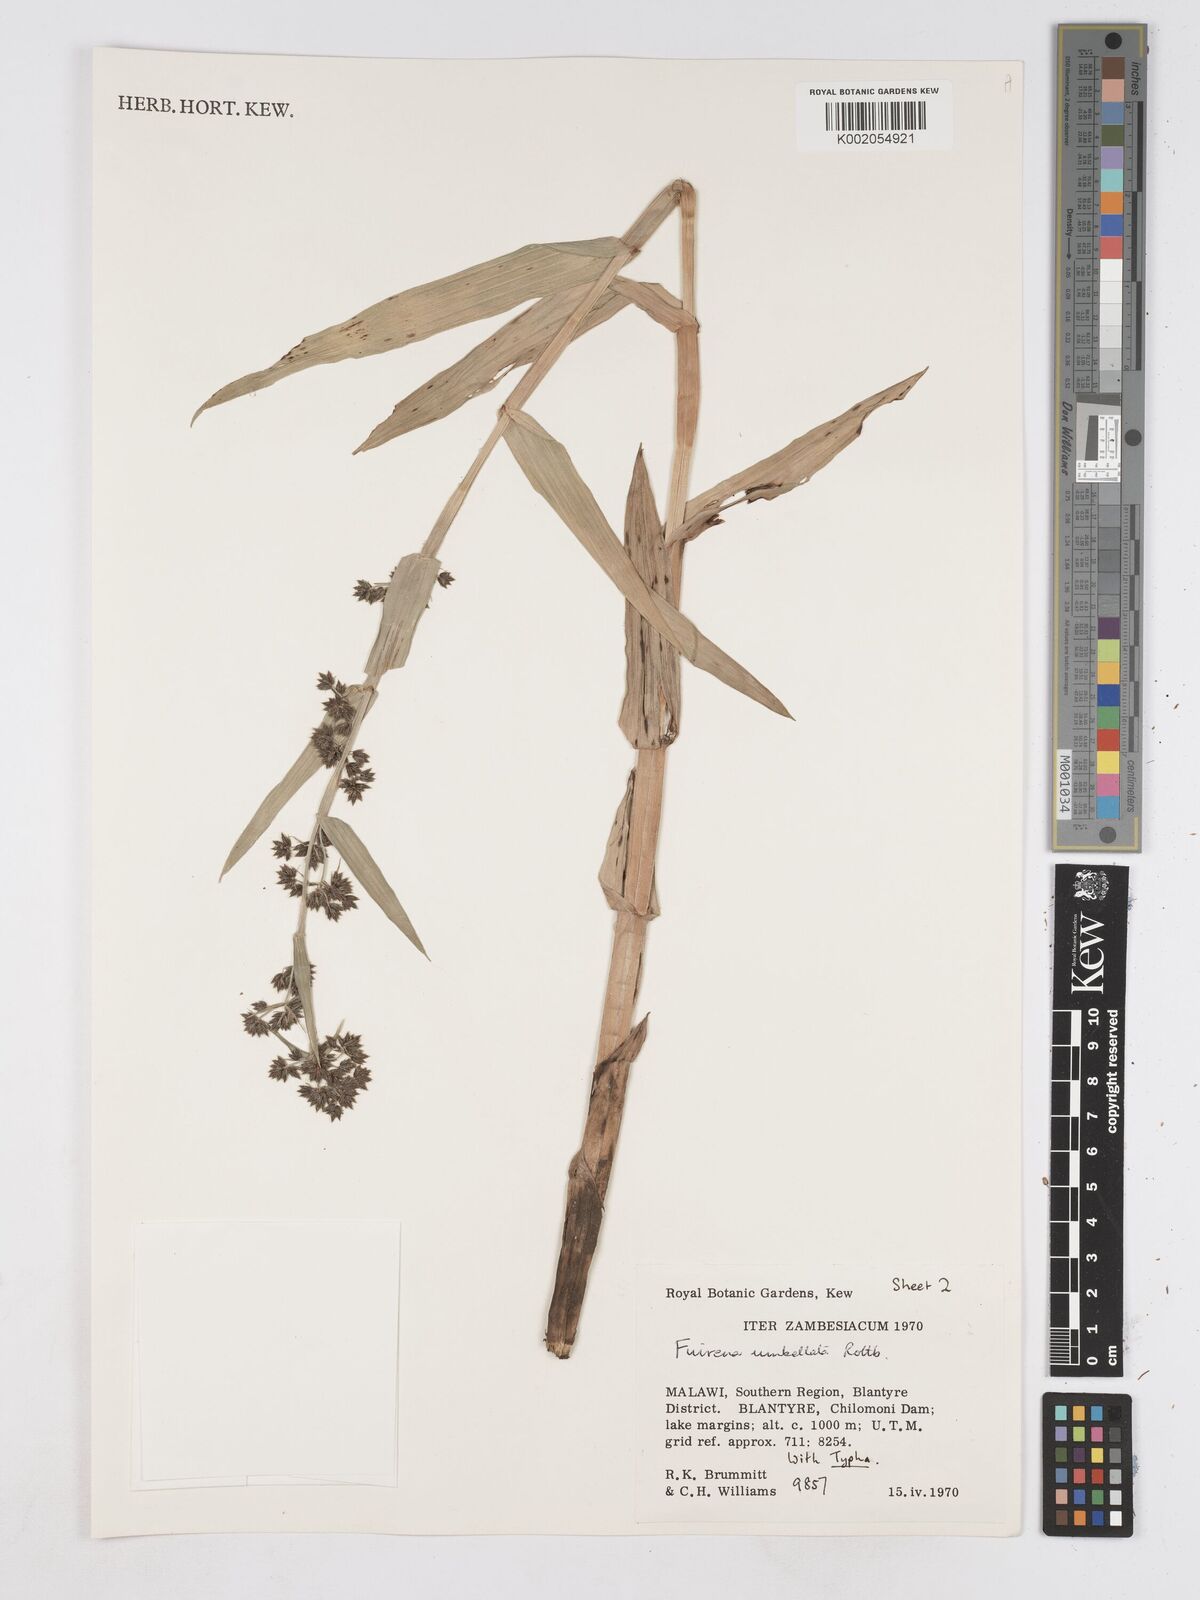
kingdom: Plantae
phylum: Tracheophyta
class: Liliopsida
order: Poales
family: Cyperaceae
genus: Fuirena
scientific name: Fuirena umbellata
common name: Yefen
